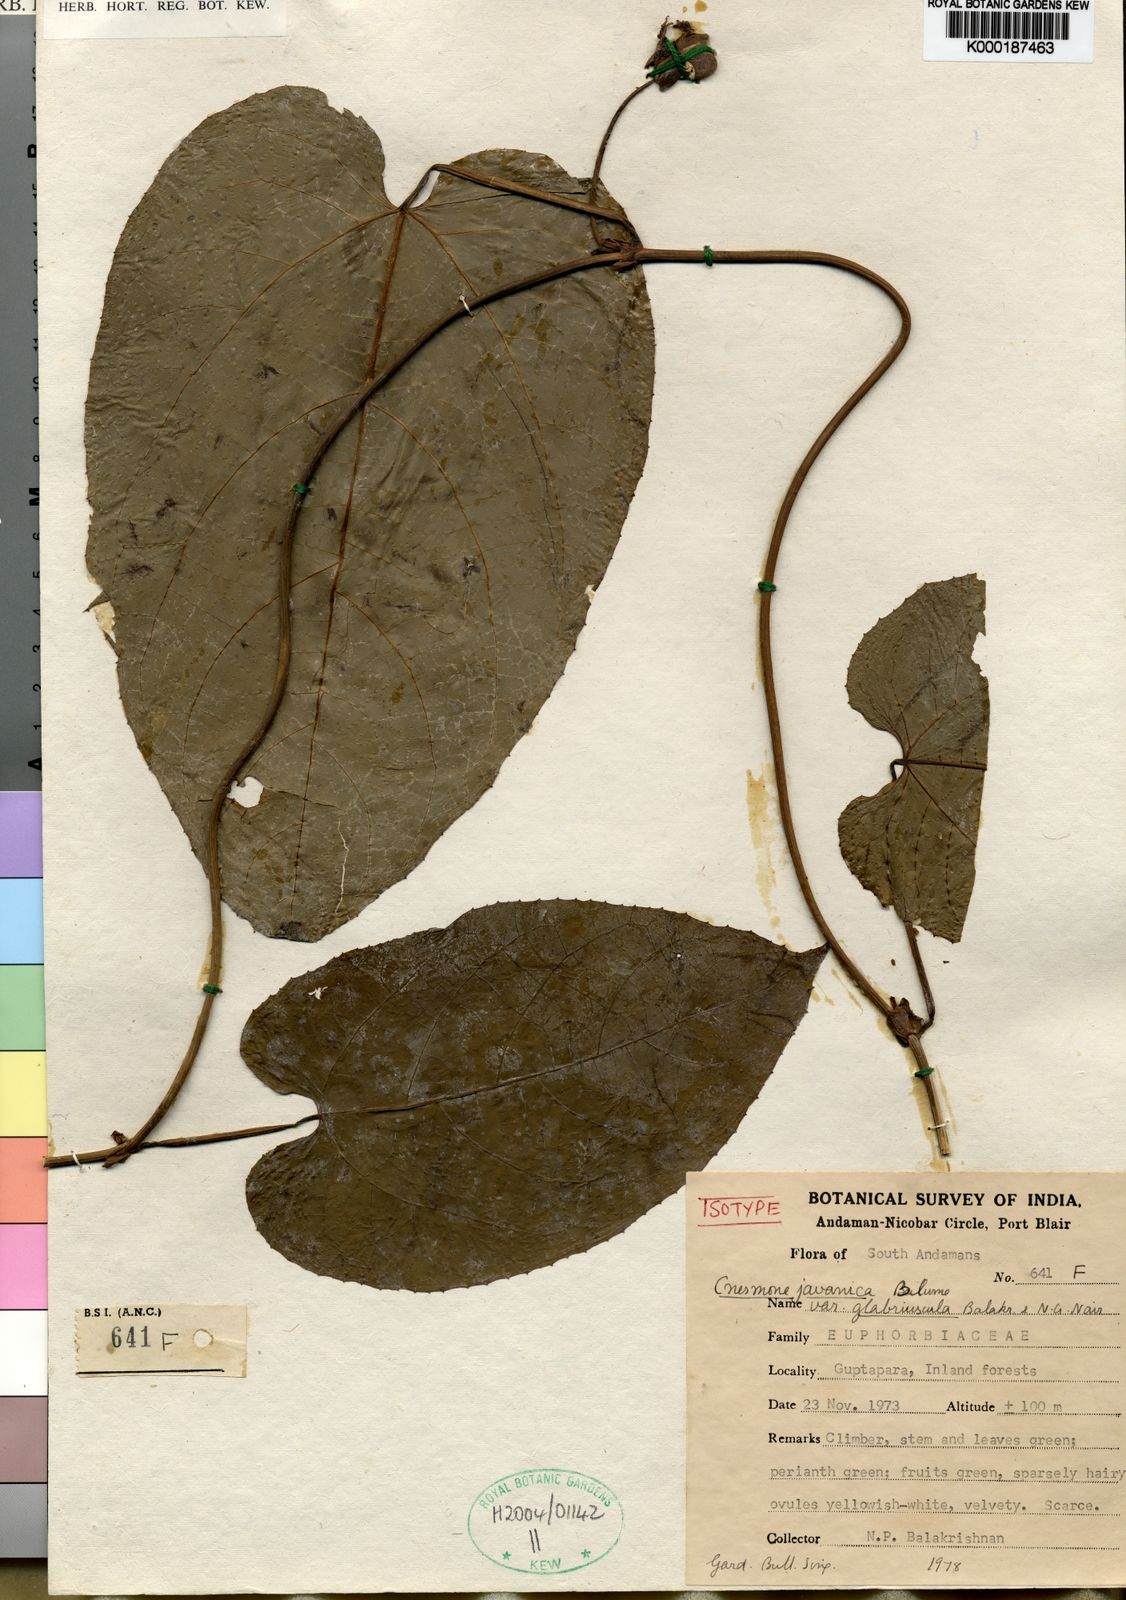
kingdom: Plantae
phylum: Tracheophyta
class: Magnoliopsida
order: Malpighiales
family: Euphorbiaceae
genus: Cnesmone
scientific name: Cnesmone javanica
